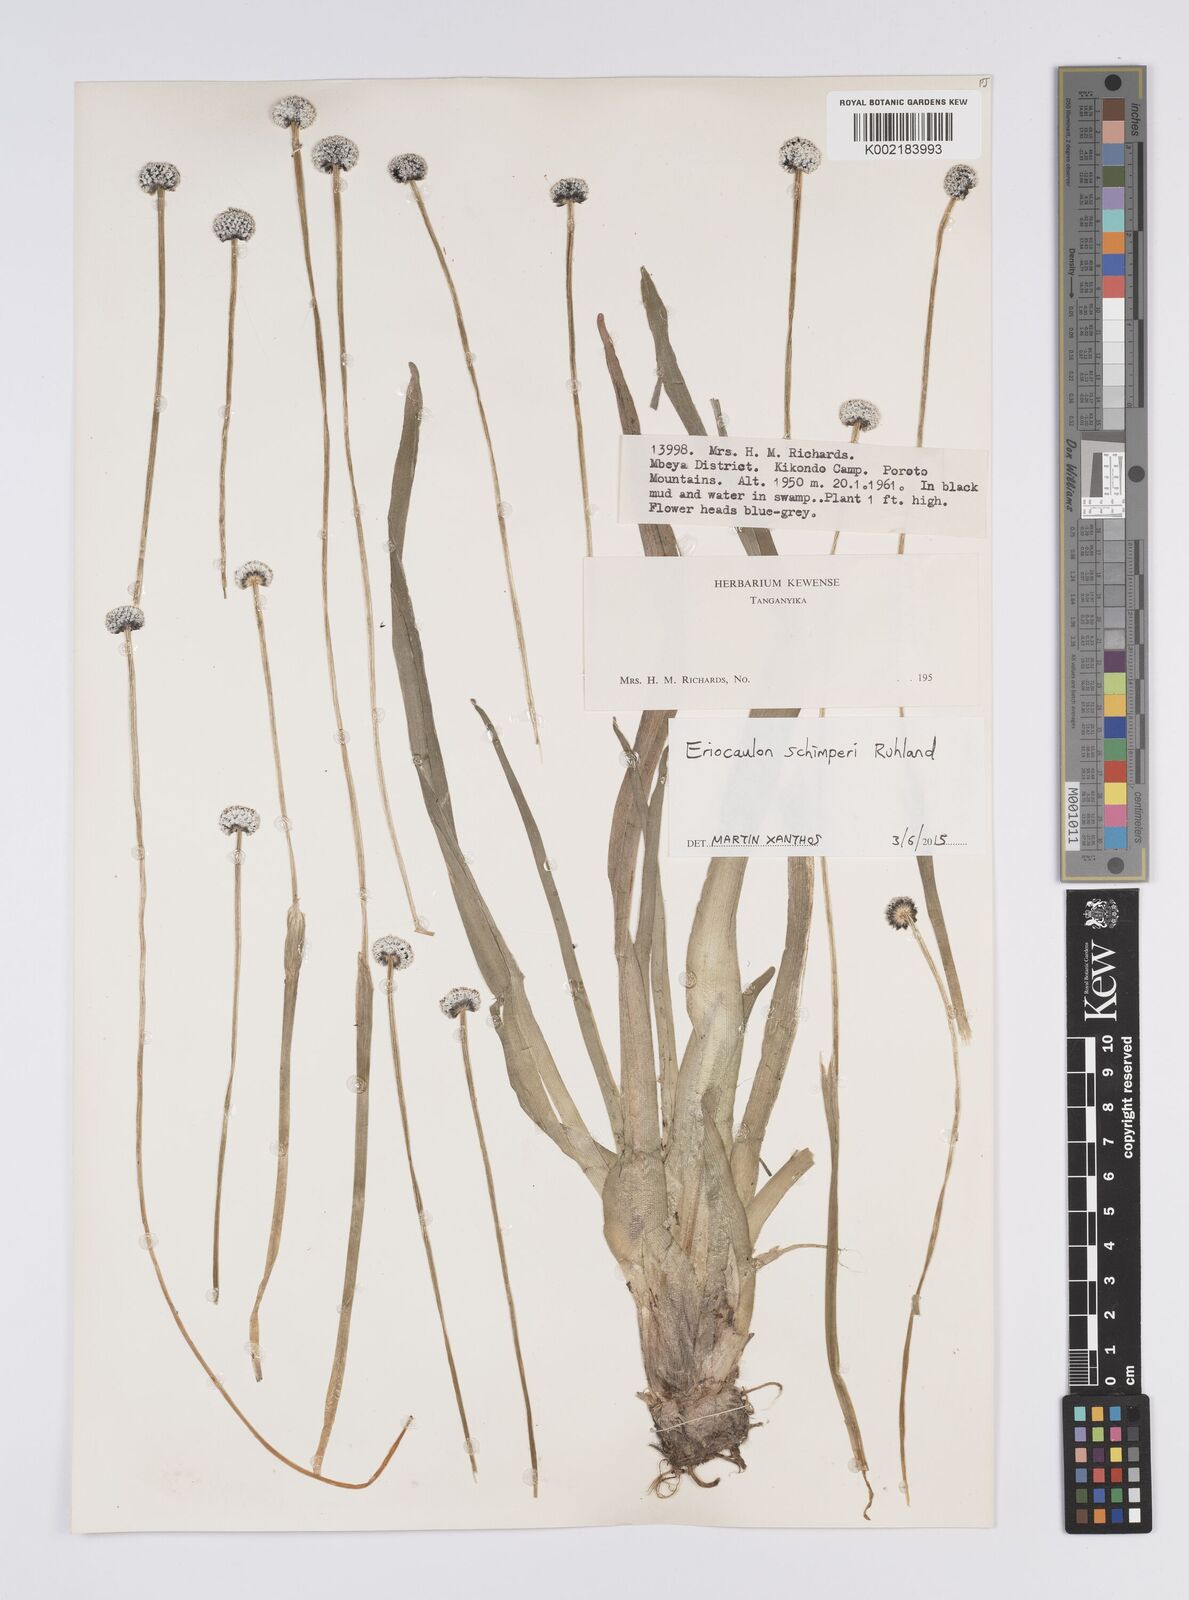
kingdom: Plantae
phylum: Tracheophyta
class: Liliopsida
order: Poales
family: Eriocaulaceae
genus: Eriocaulon
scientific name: Eriocaulon schimperi
